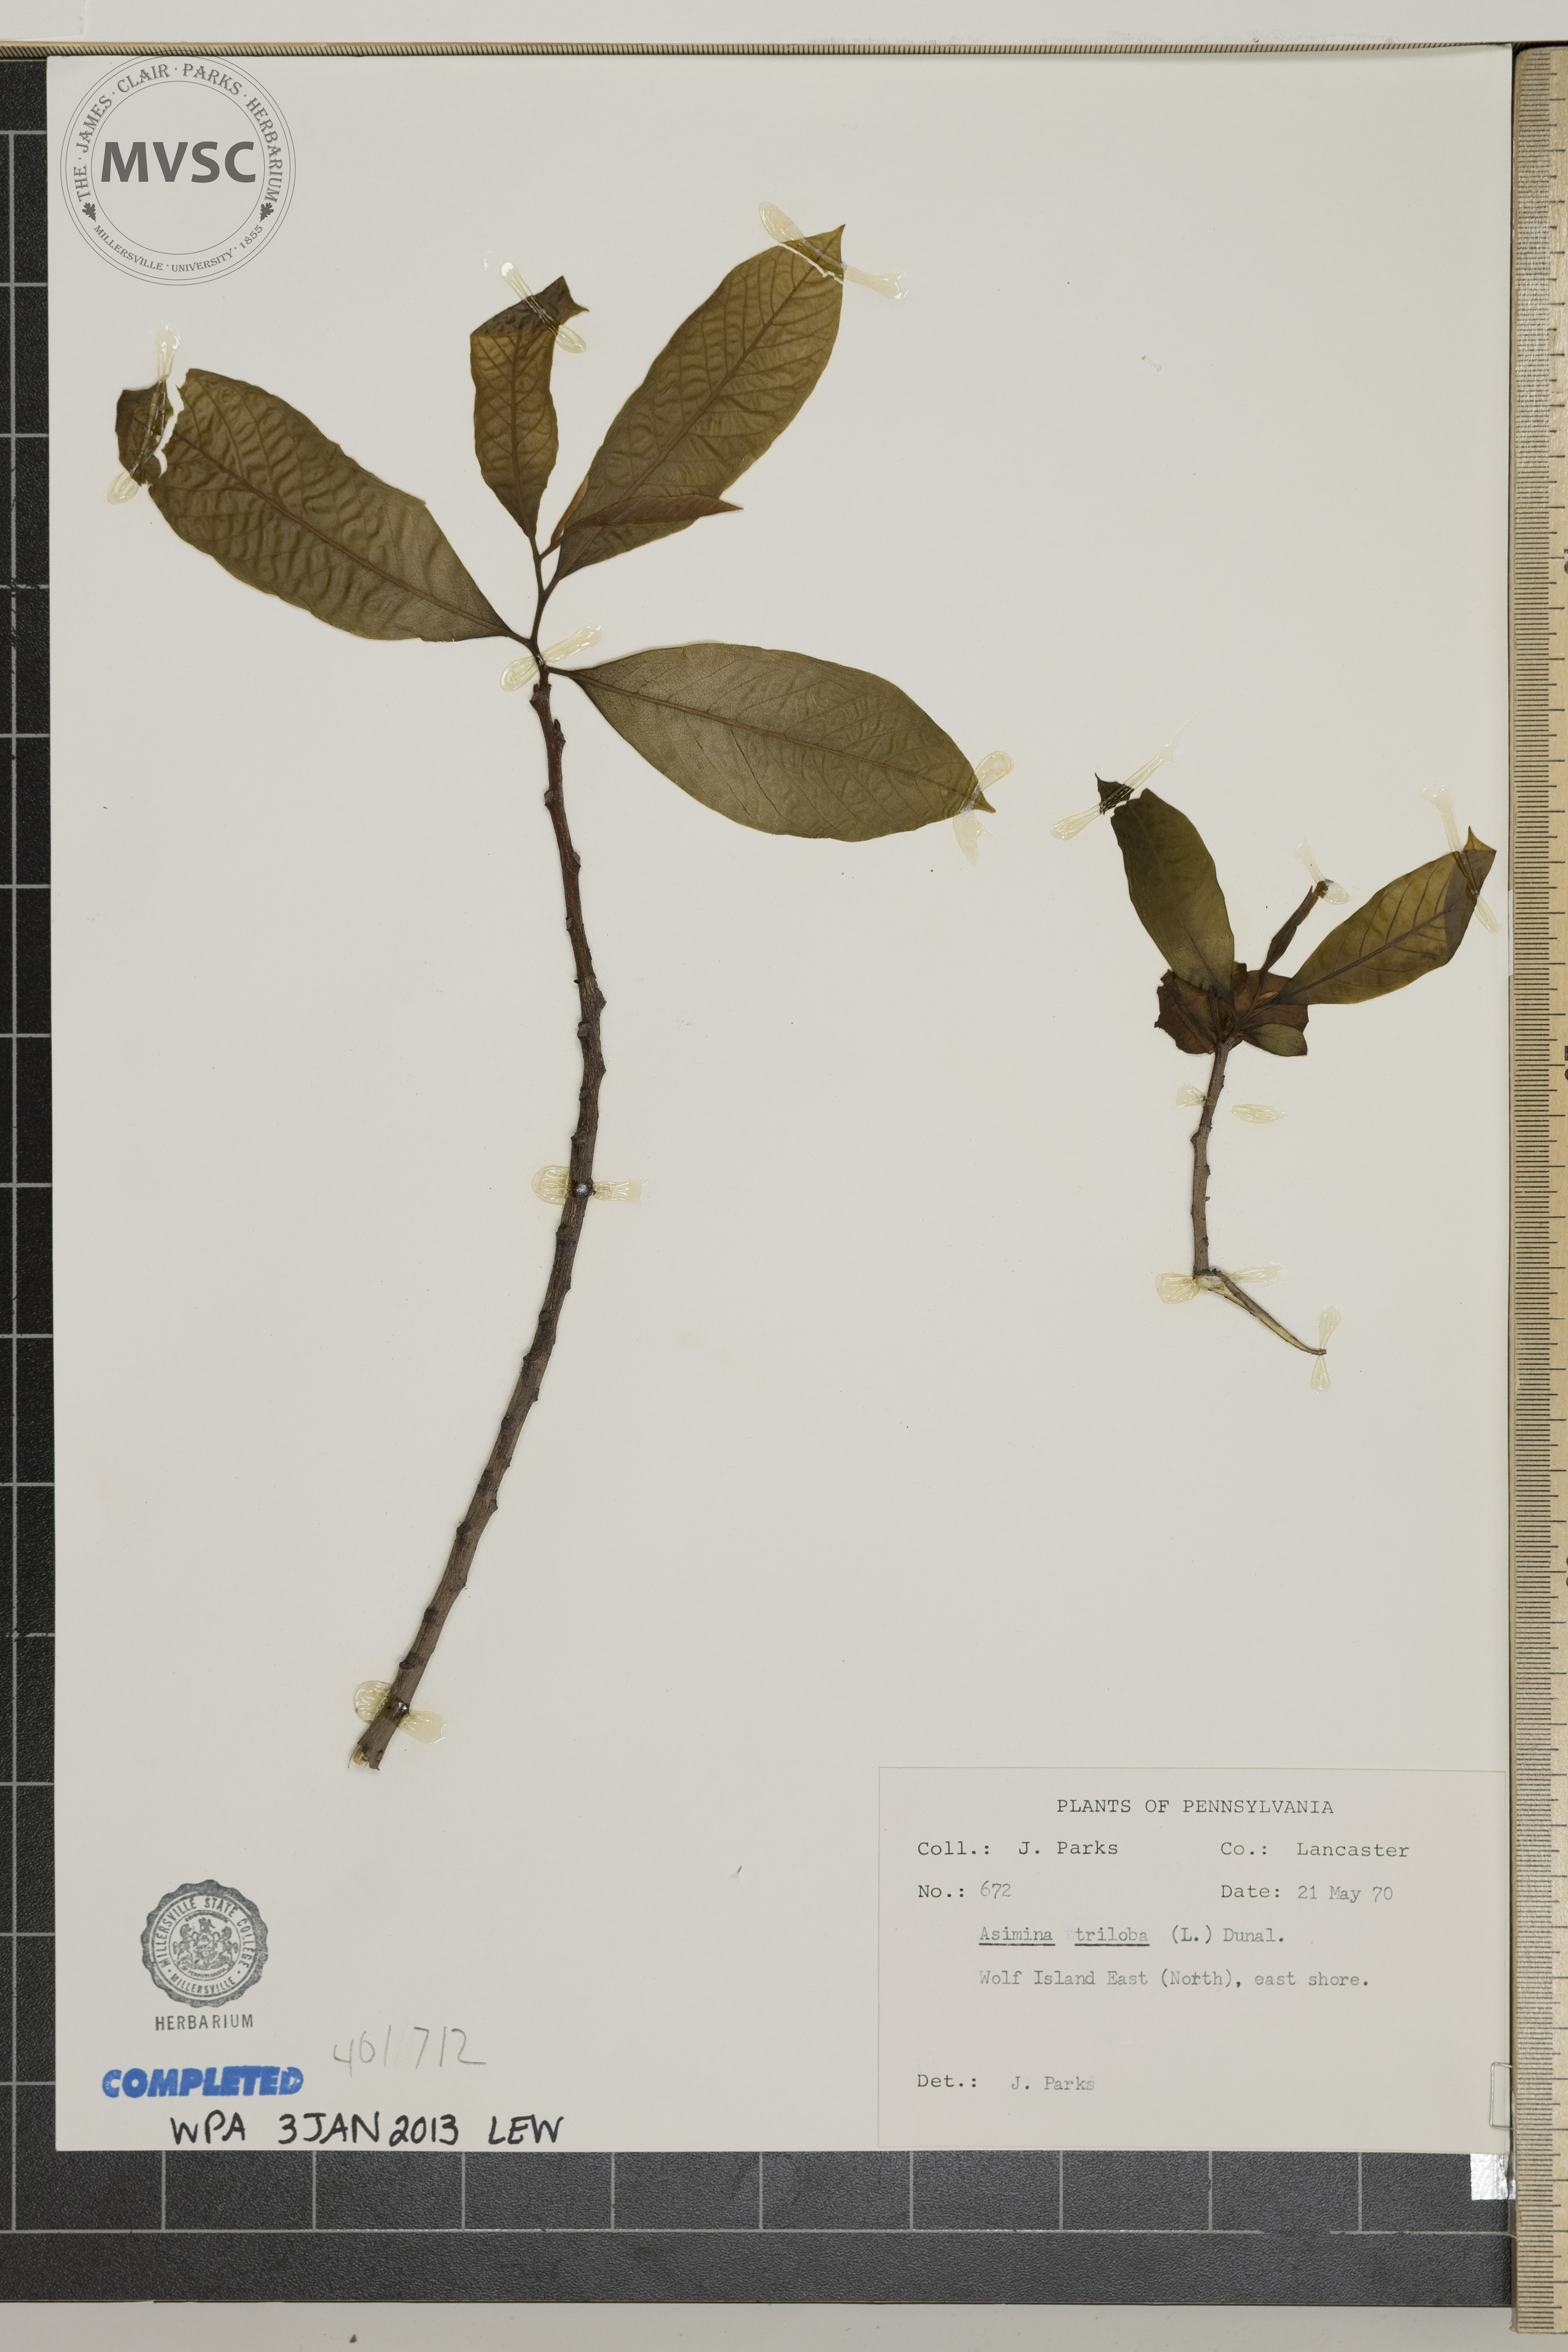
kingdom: Plantae
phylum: Tracheophyta
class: Magnoliopsida
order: Magnoliales
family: Annonaceae
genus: Asimina
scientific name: Asimina triloba
